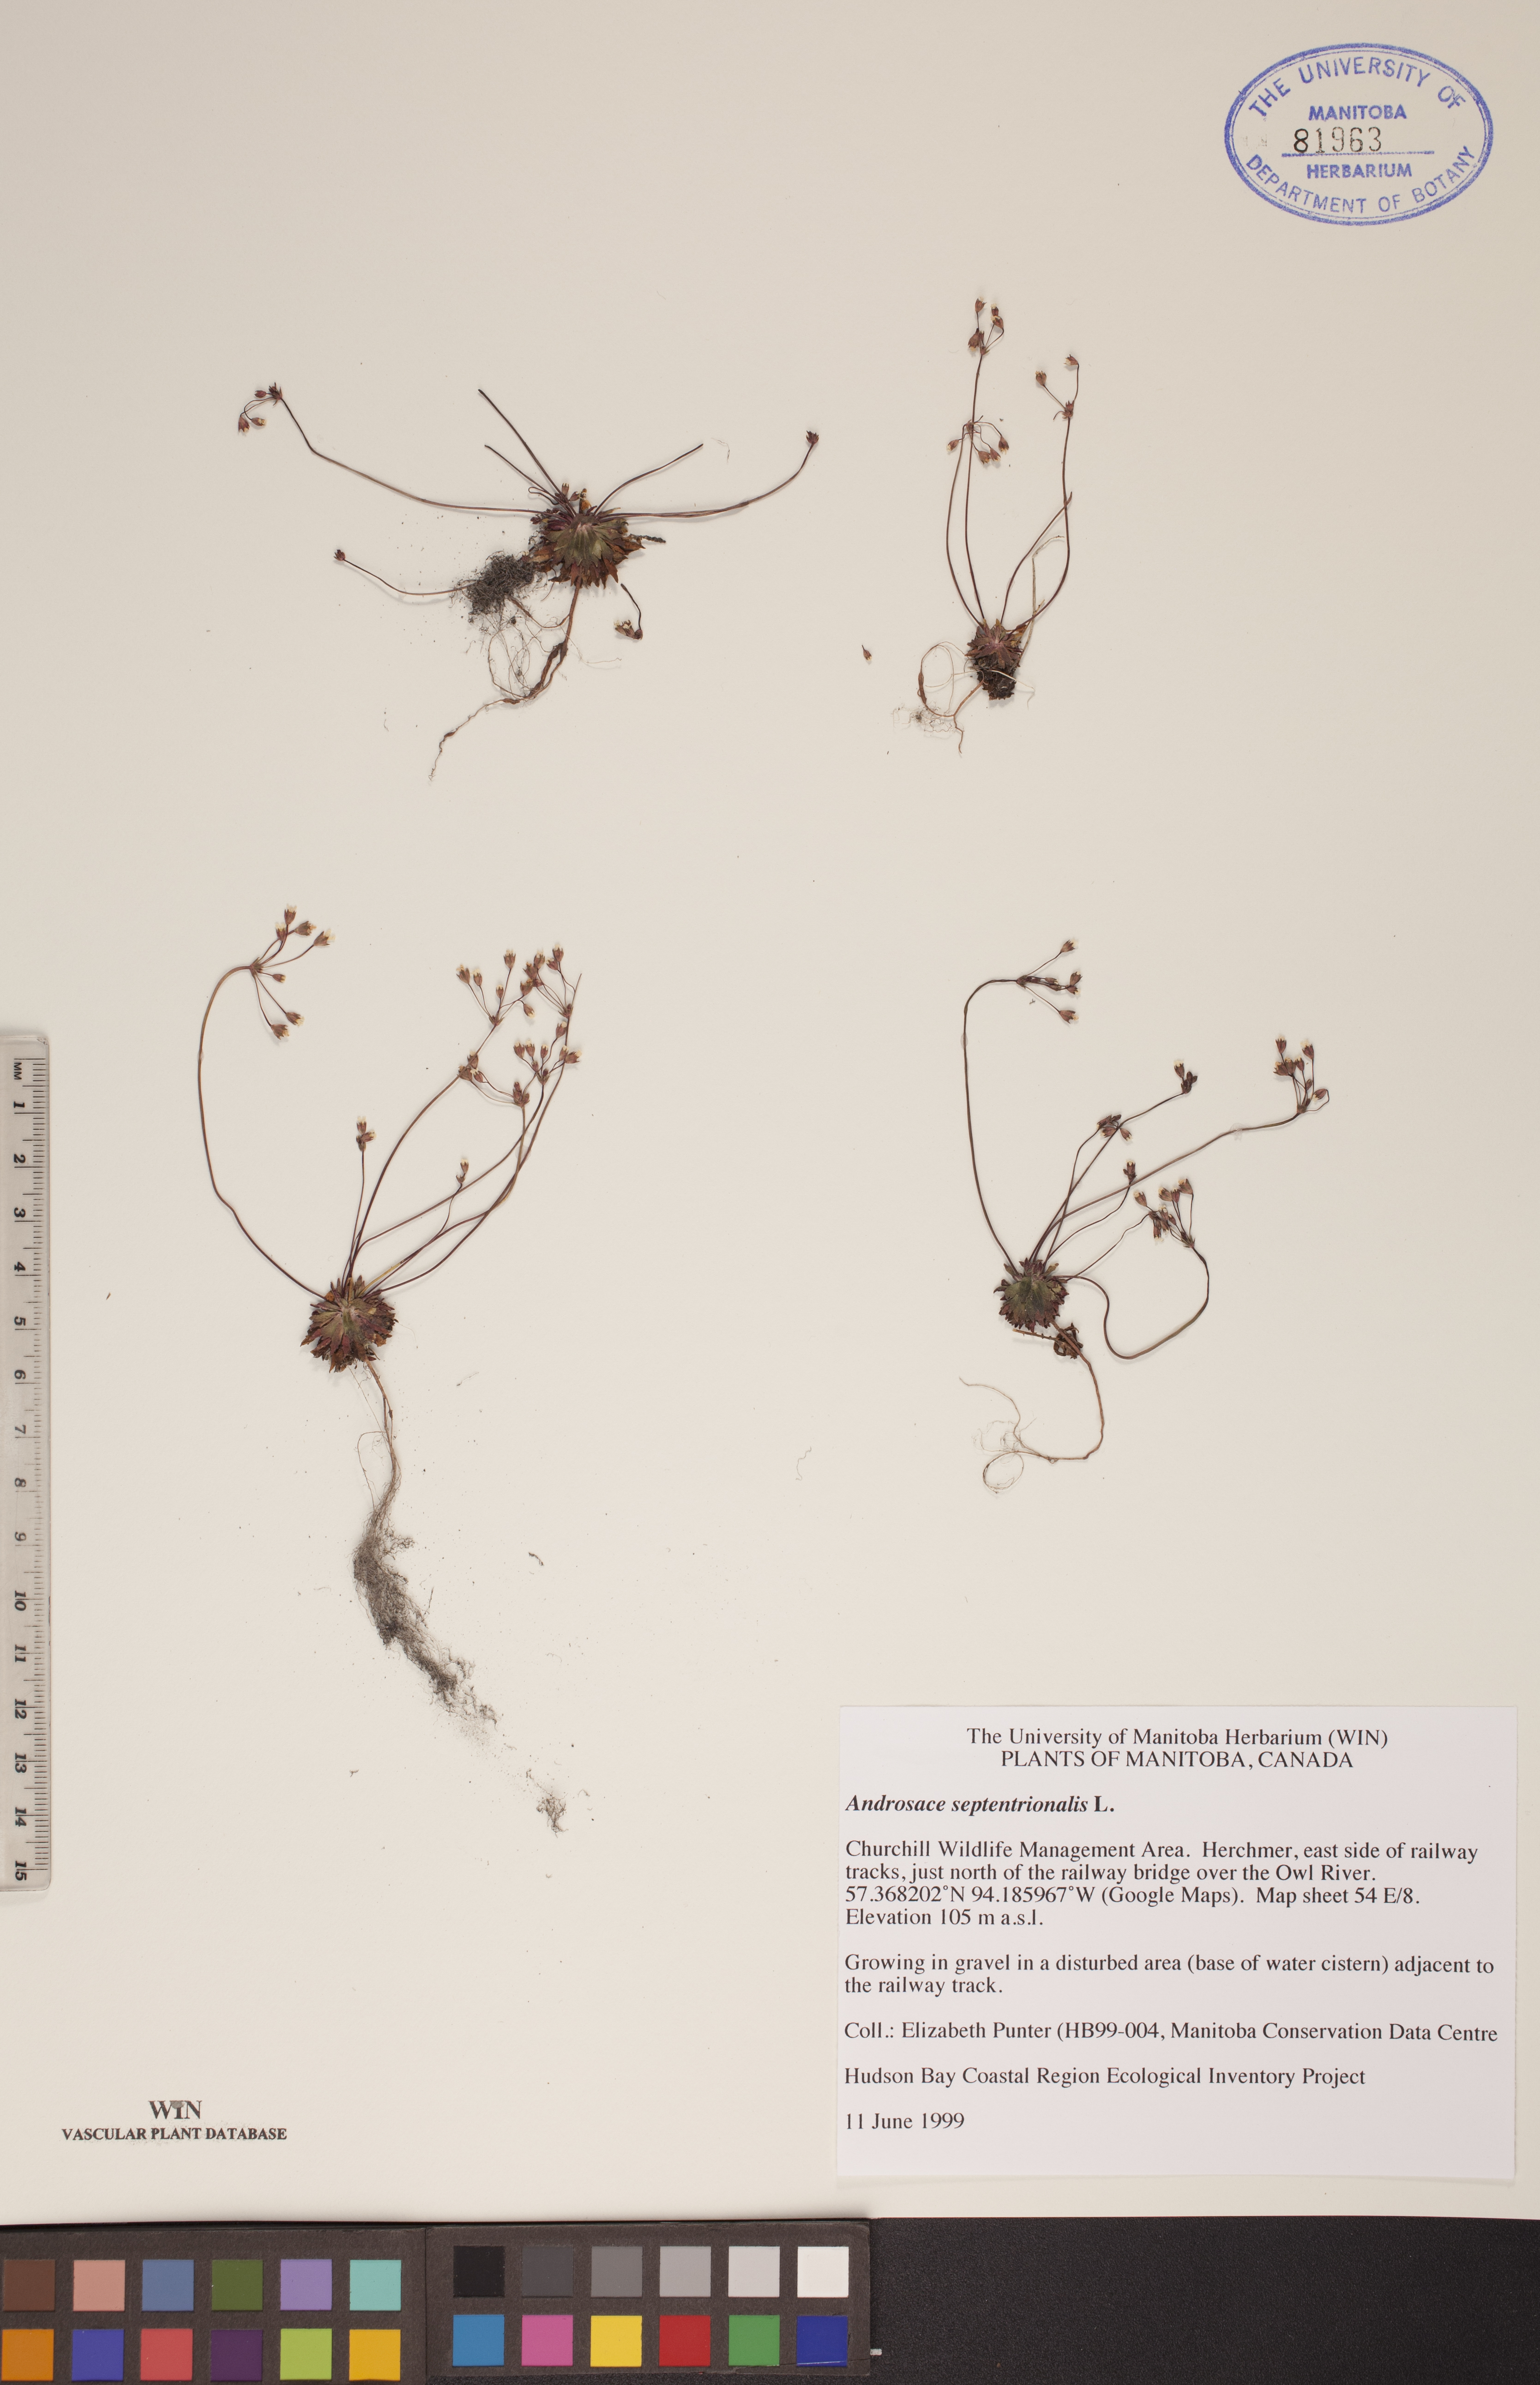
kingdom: Plantae
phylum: Tracheophyta
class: Magnoliopsida
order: Ericales
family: Primulaceae
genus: Androsace
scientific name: Androsace septentrionalis
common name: Hairy northern fairy-candelabra
